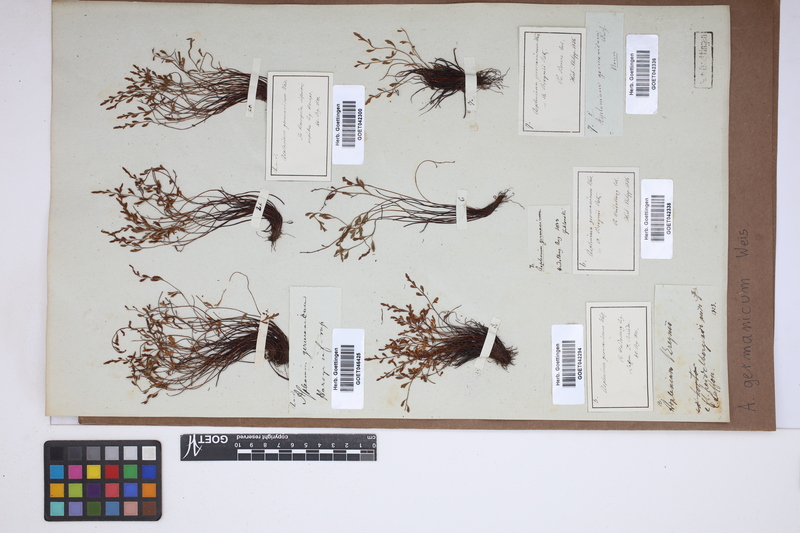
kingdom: Plantae
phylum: Tracheophyta
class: Polypodiopsida
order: Polypodiales
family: Aspleniaceae
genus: Asplenium
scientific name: Asplenium
